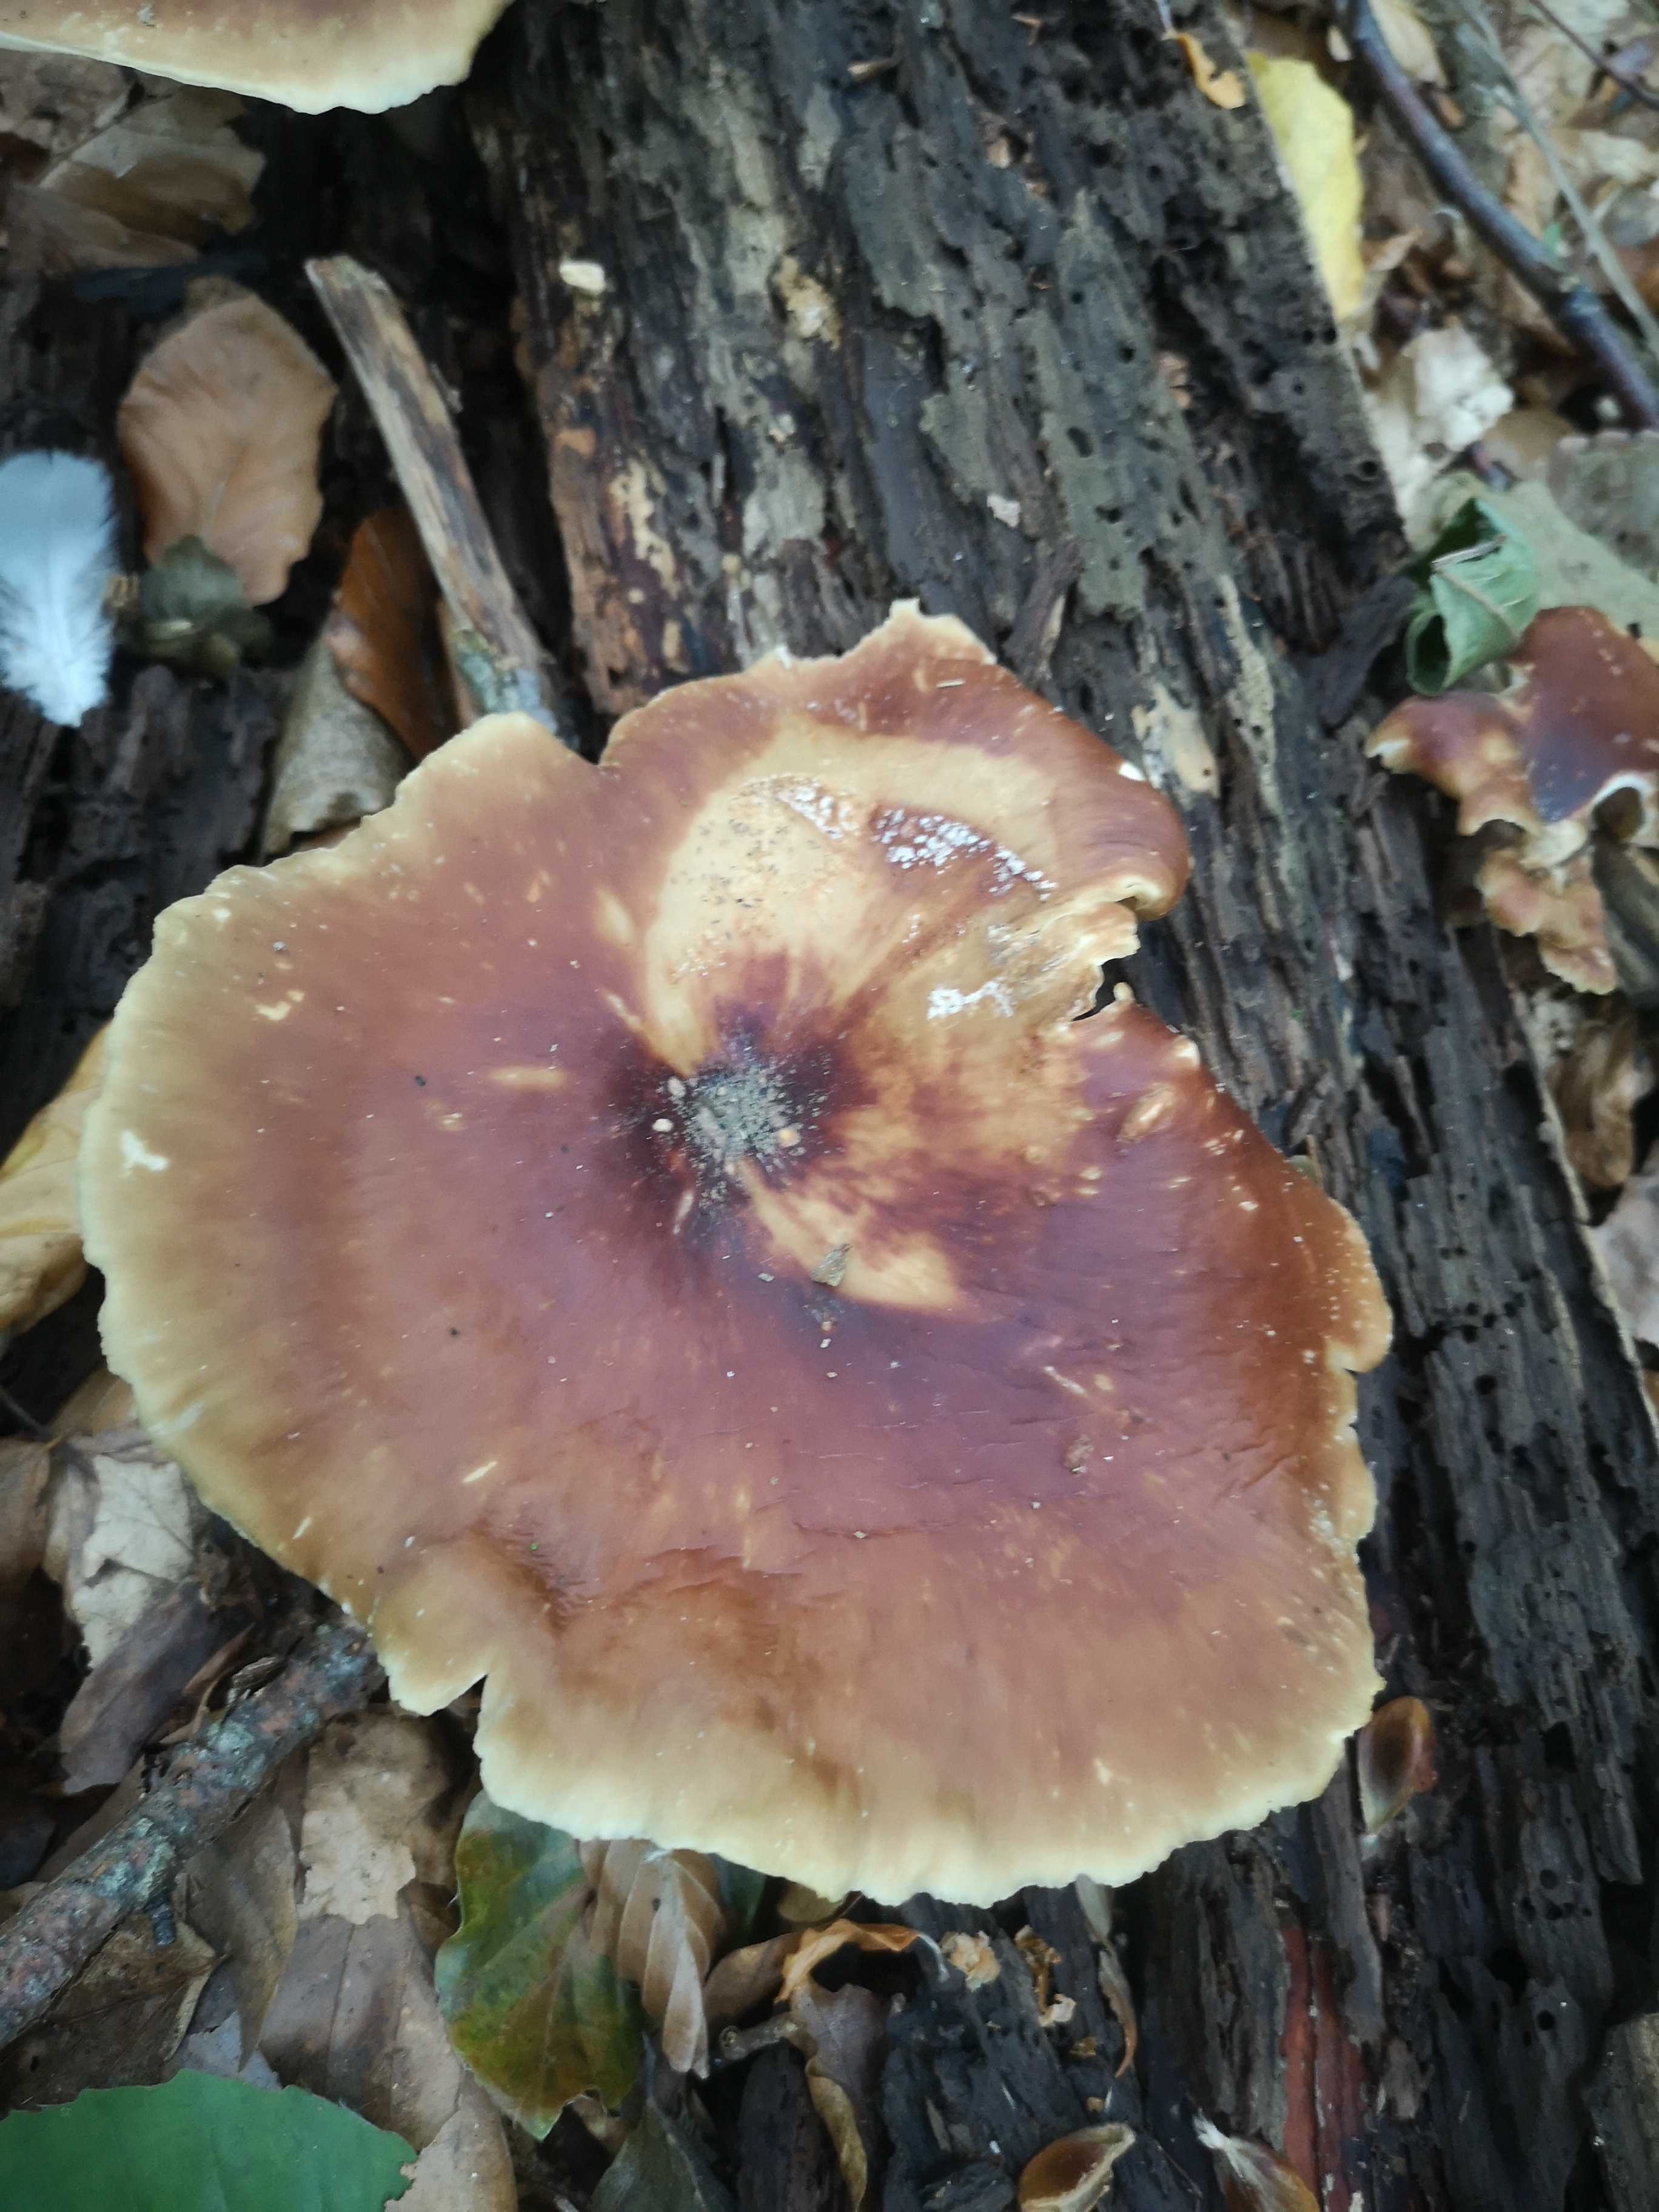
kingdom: Fungi
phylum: Basidiomycota
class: Agaricomycetes
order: Polyporales
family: Polyporaceae
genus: Picipes
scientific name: Picipes badius
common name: kastaniebrun stilkporesvamp
